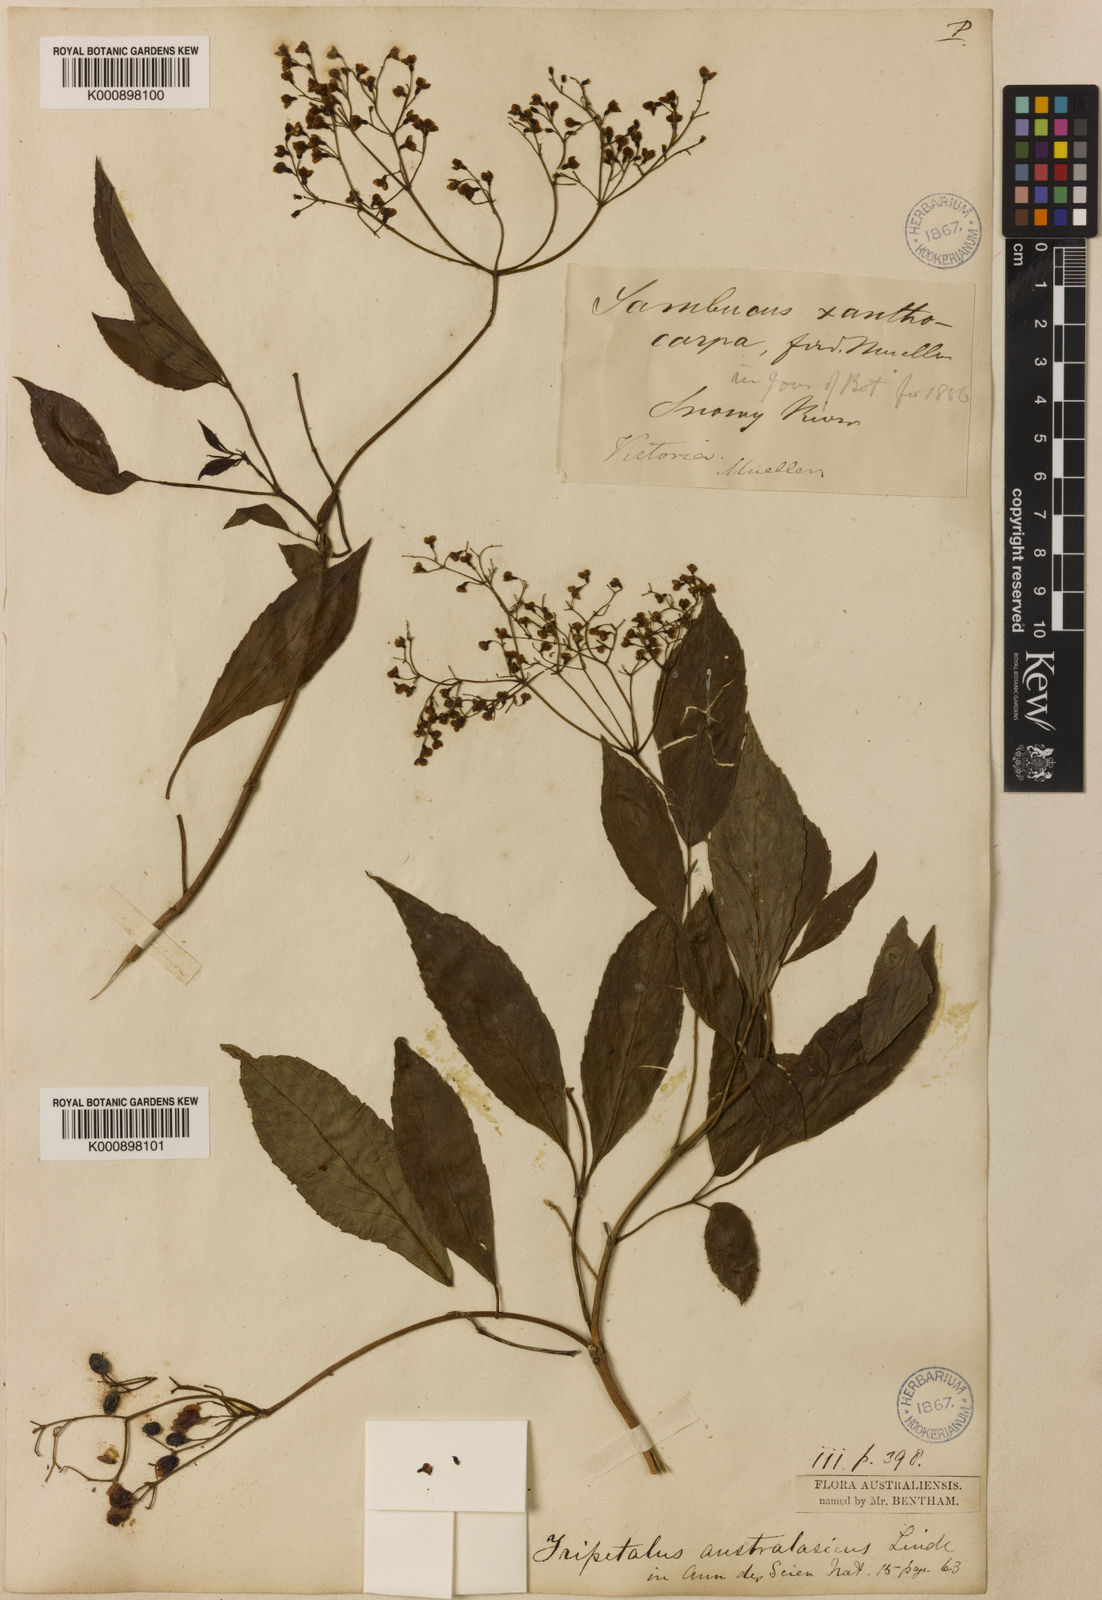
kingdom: Plantae
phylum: Tracheophyta
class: Magnoliopsida
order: Dipsacales
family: Viburnaceae
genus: Sambucus
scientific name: Sambucus australasica
